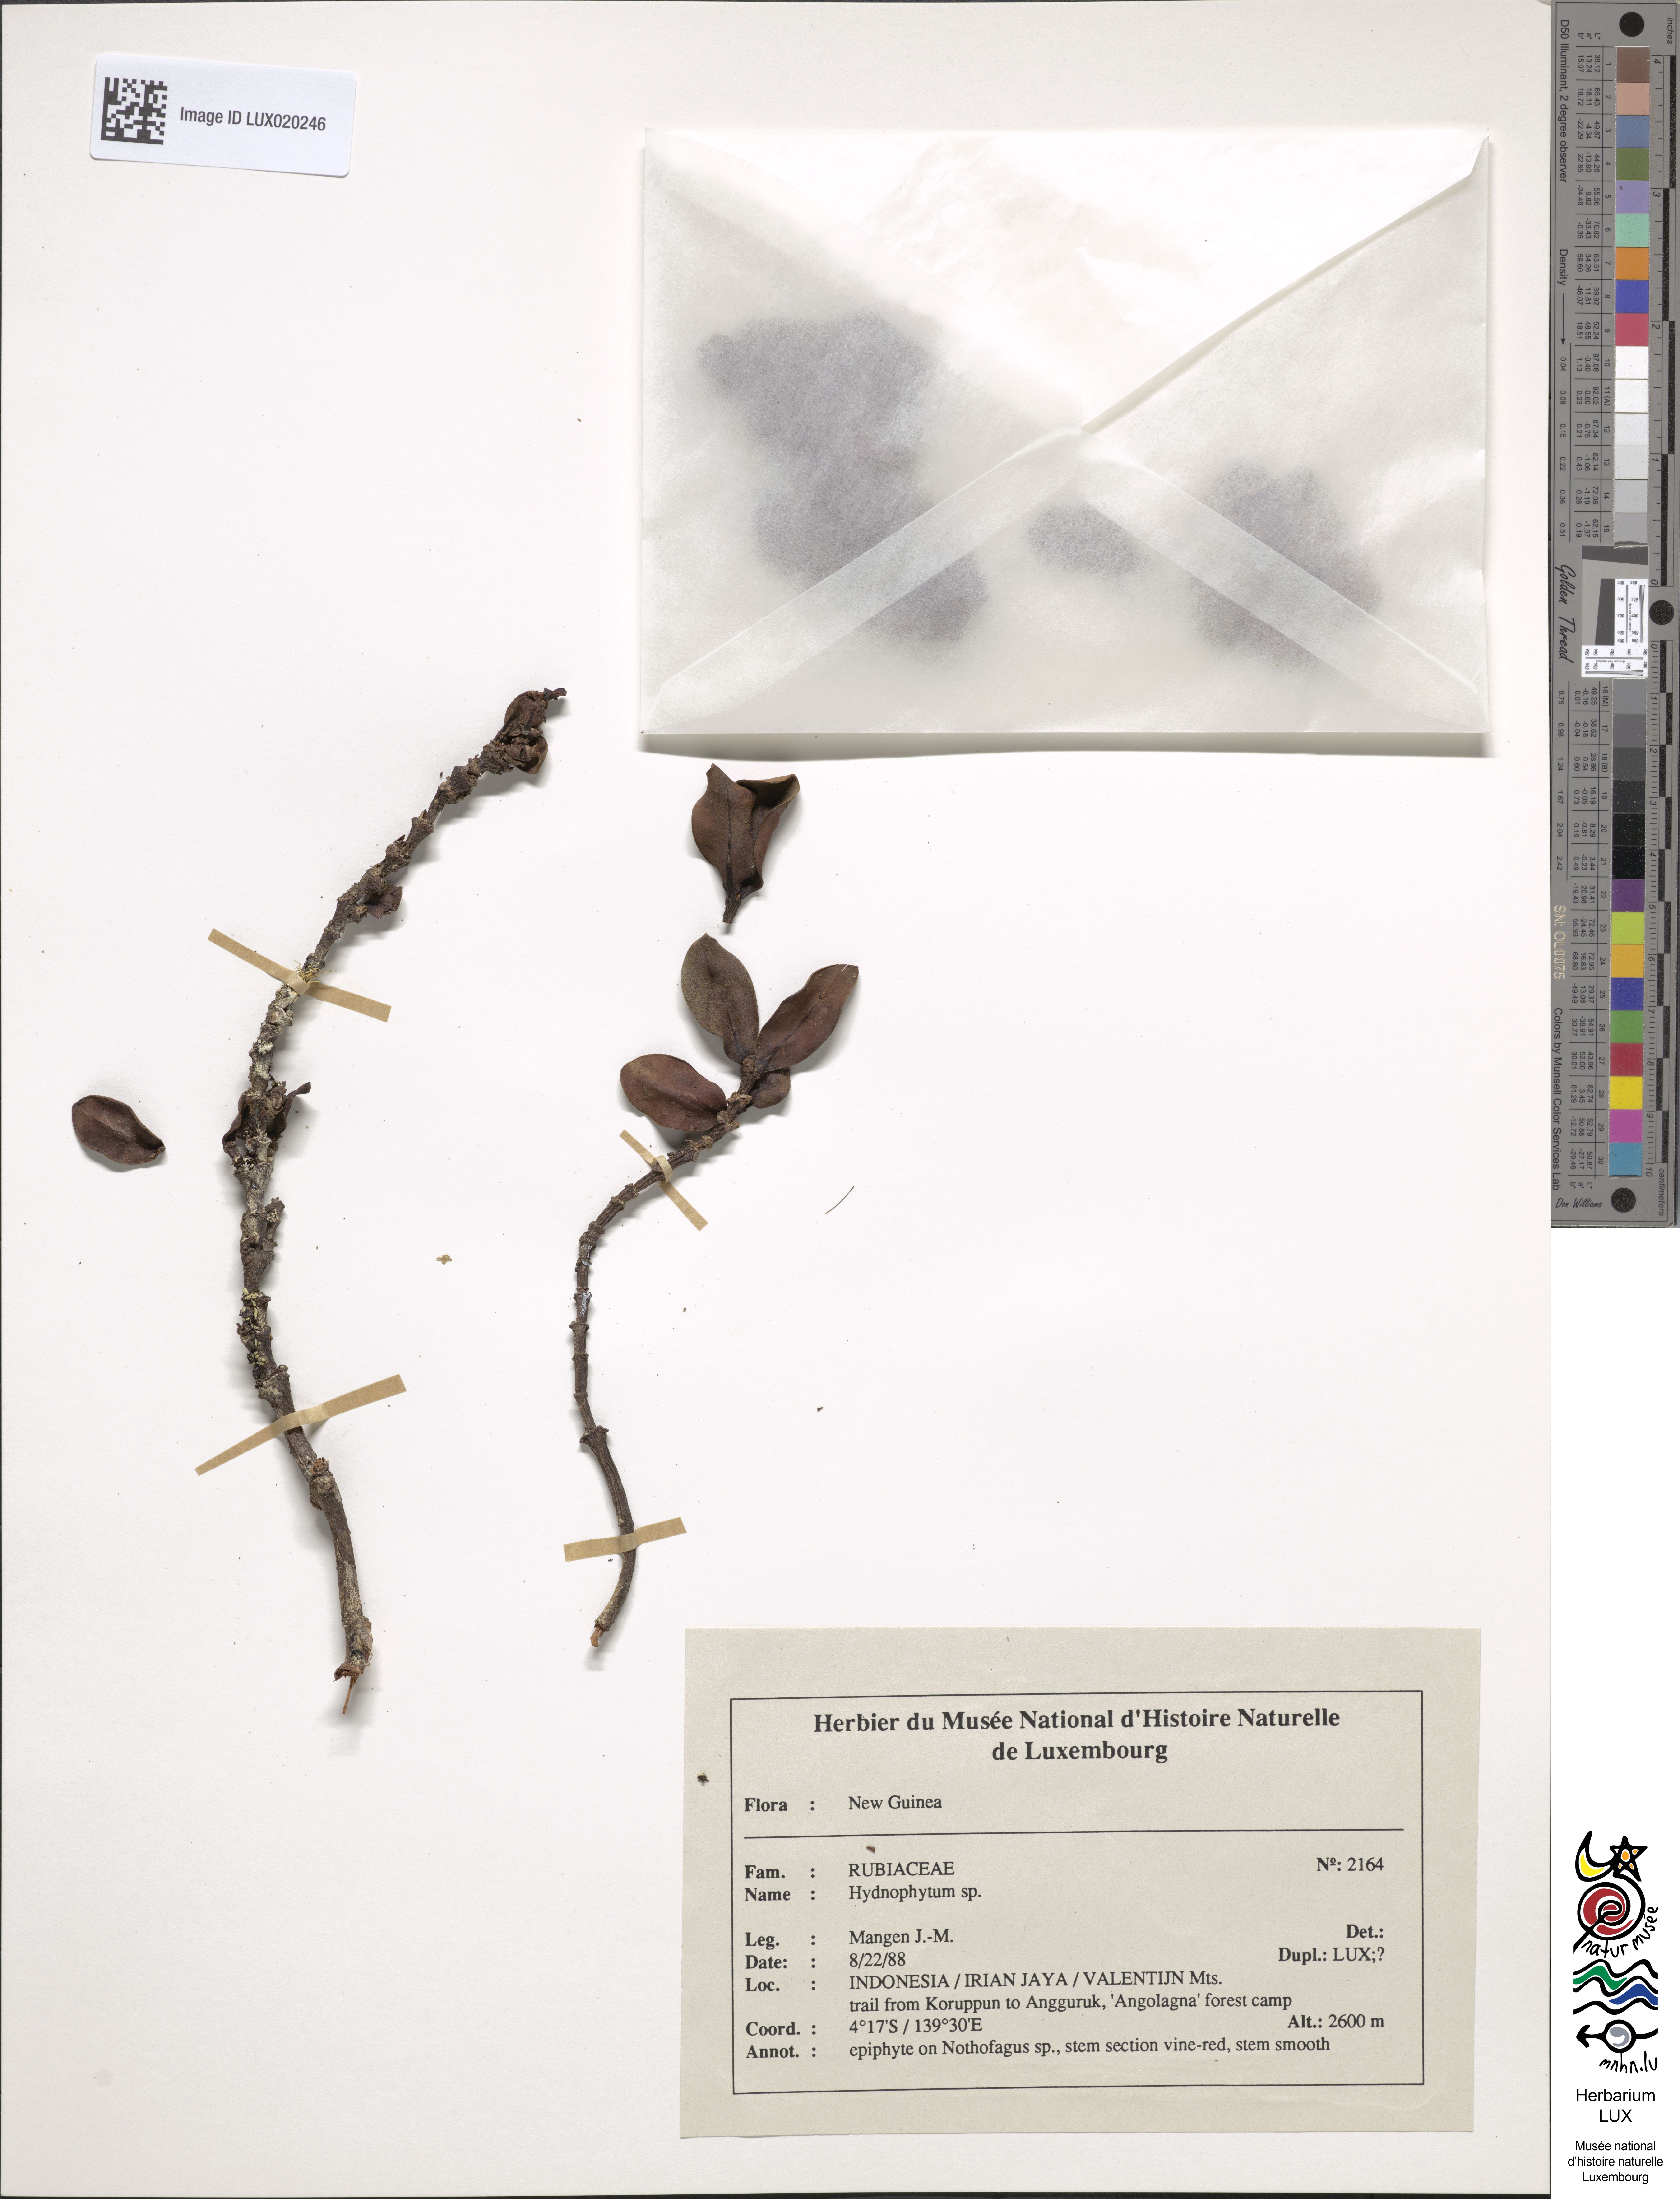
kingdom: Plantae
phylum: Tracheophyta
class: Magnoliopsida
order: Gentianales
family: Rubiaceae
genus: Hydnophytum
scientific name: Hydnophytum
